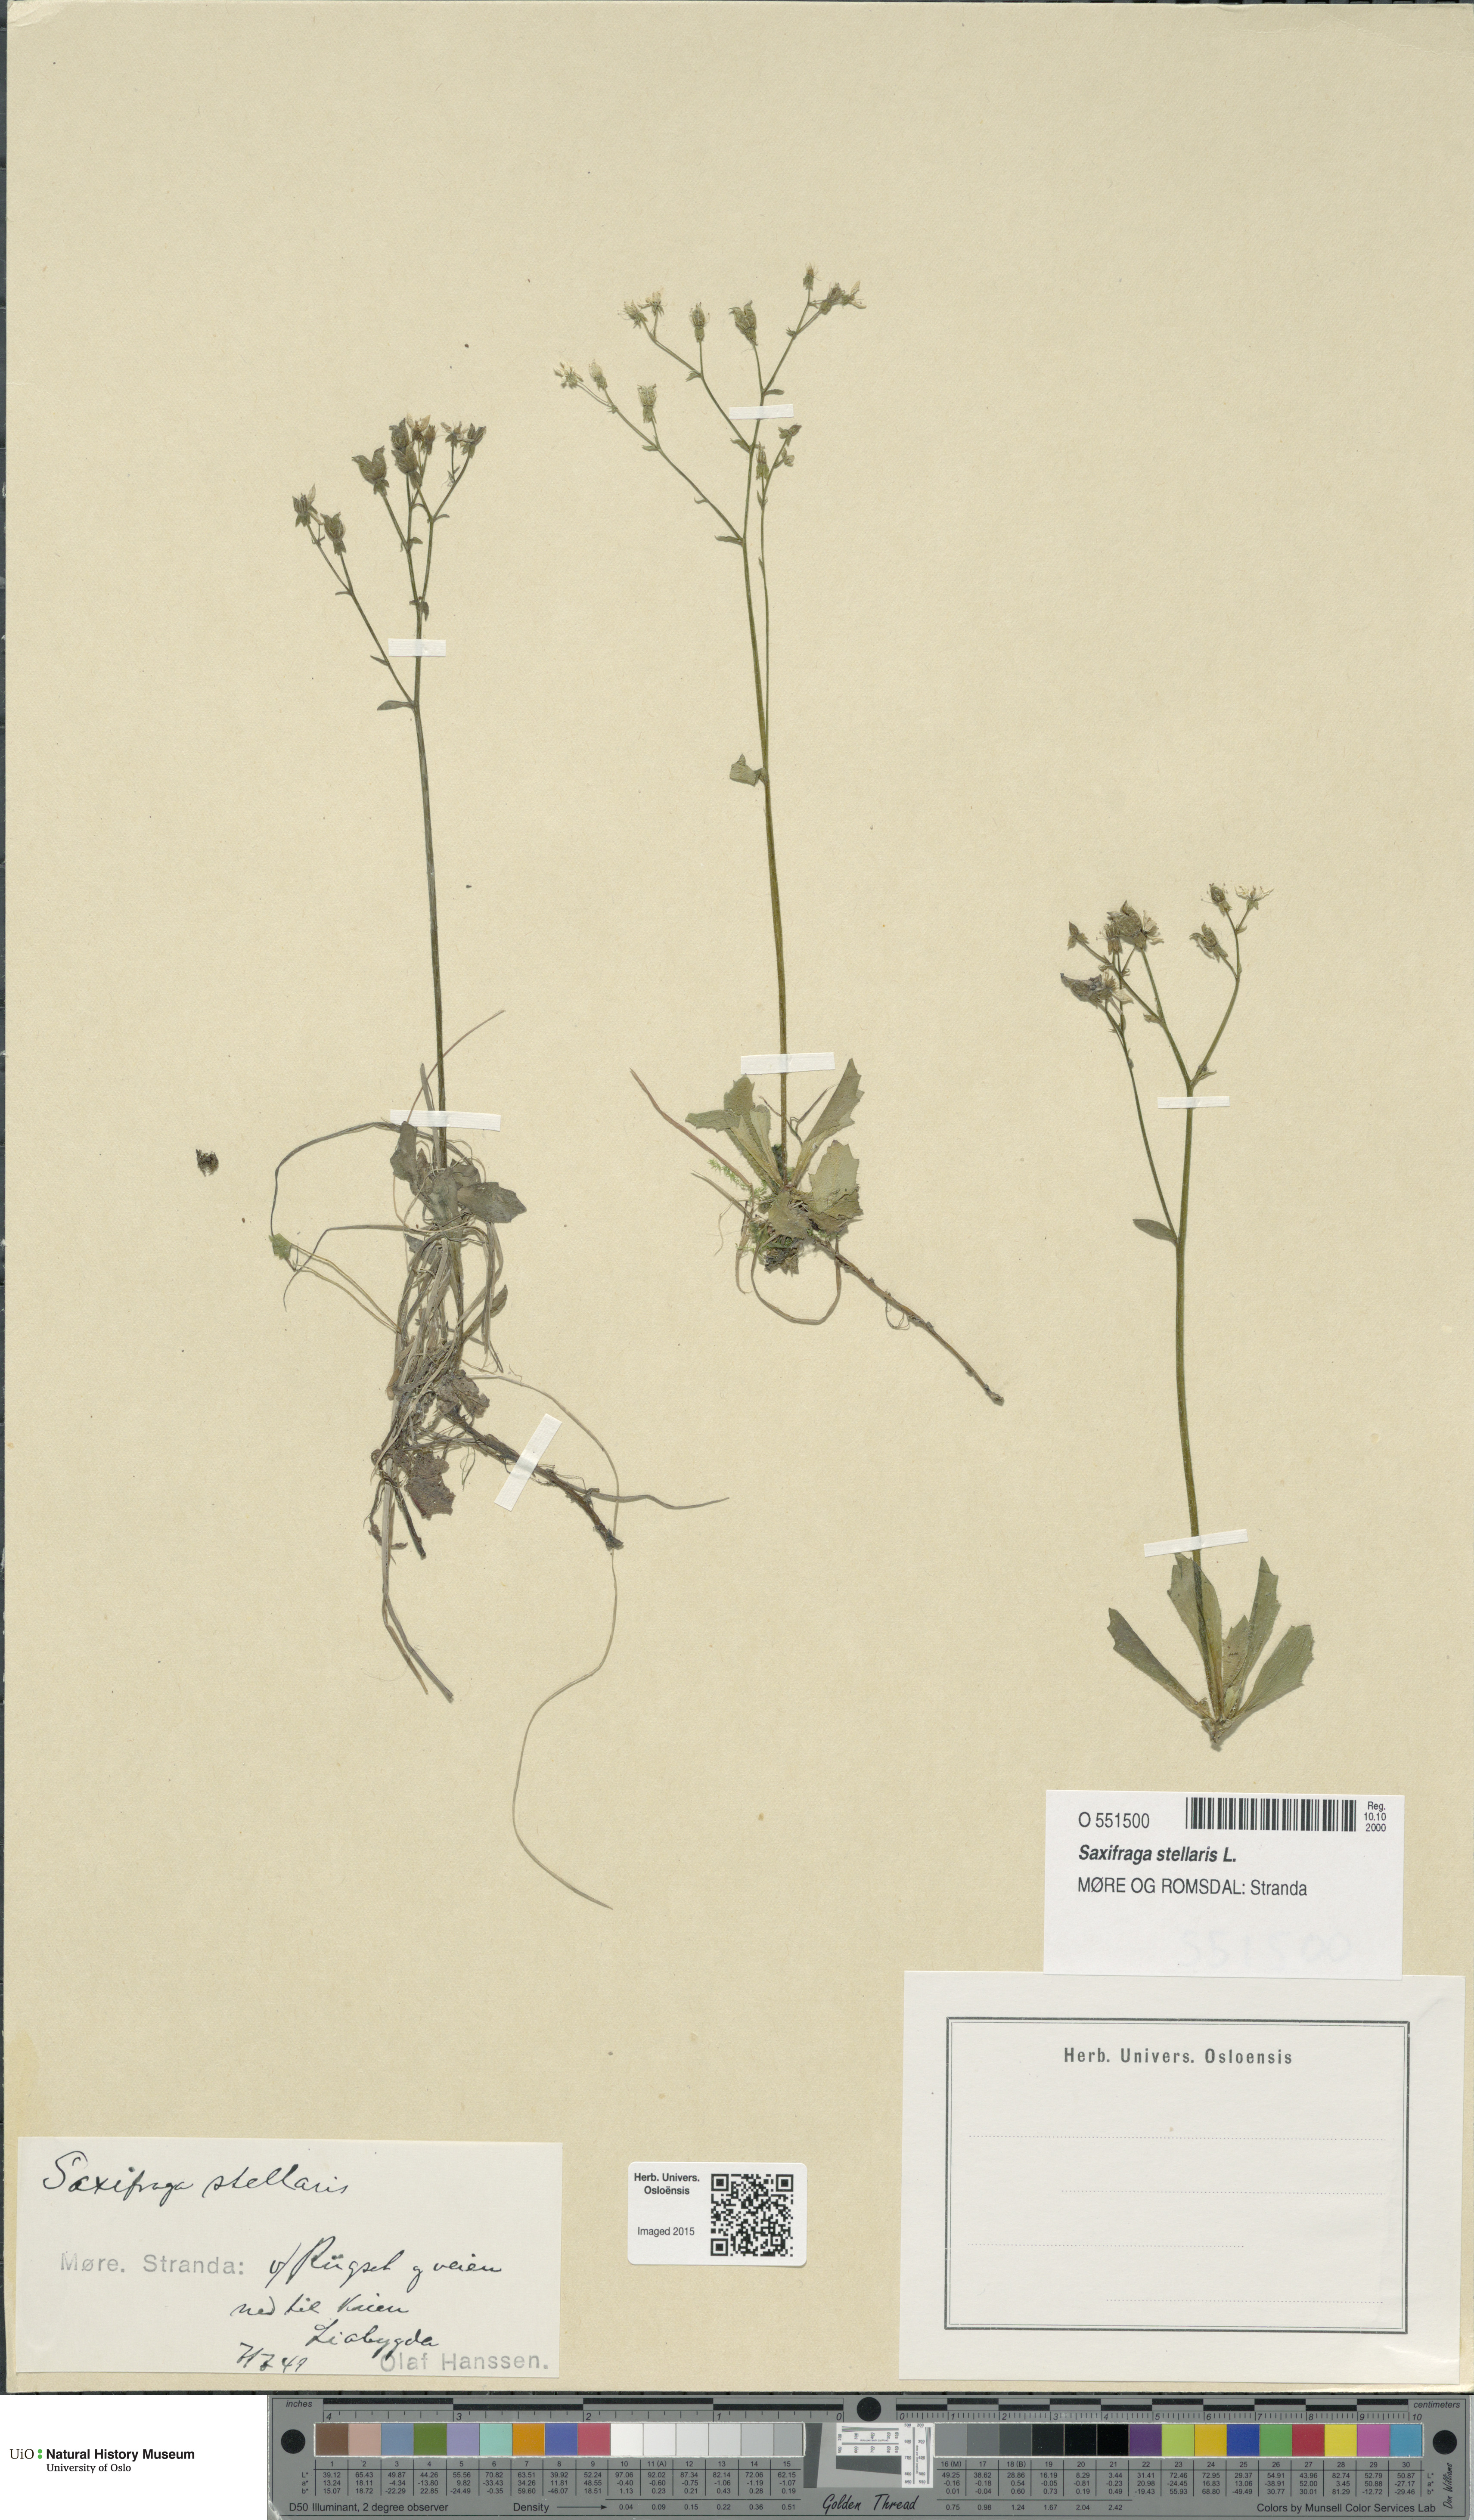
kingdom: Plantae
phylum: Tracheophyta
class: Magnoliopsida
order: Saxifragales
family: Saxifragaceae
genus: Micranthes
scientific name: Micranthes stellaris
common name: Starry saxifrage
